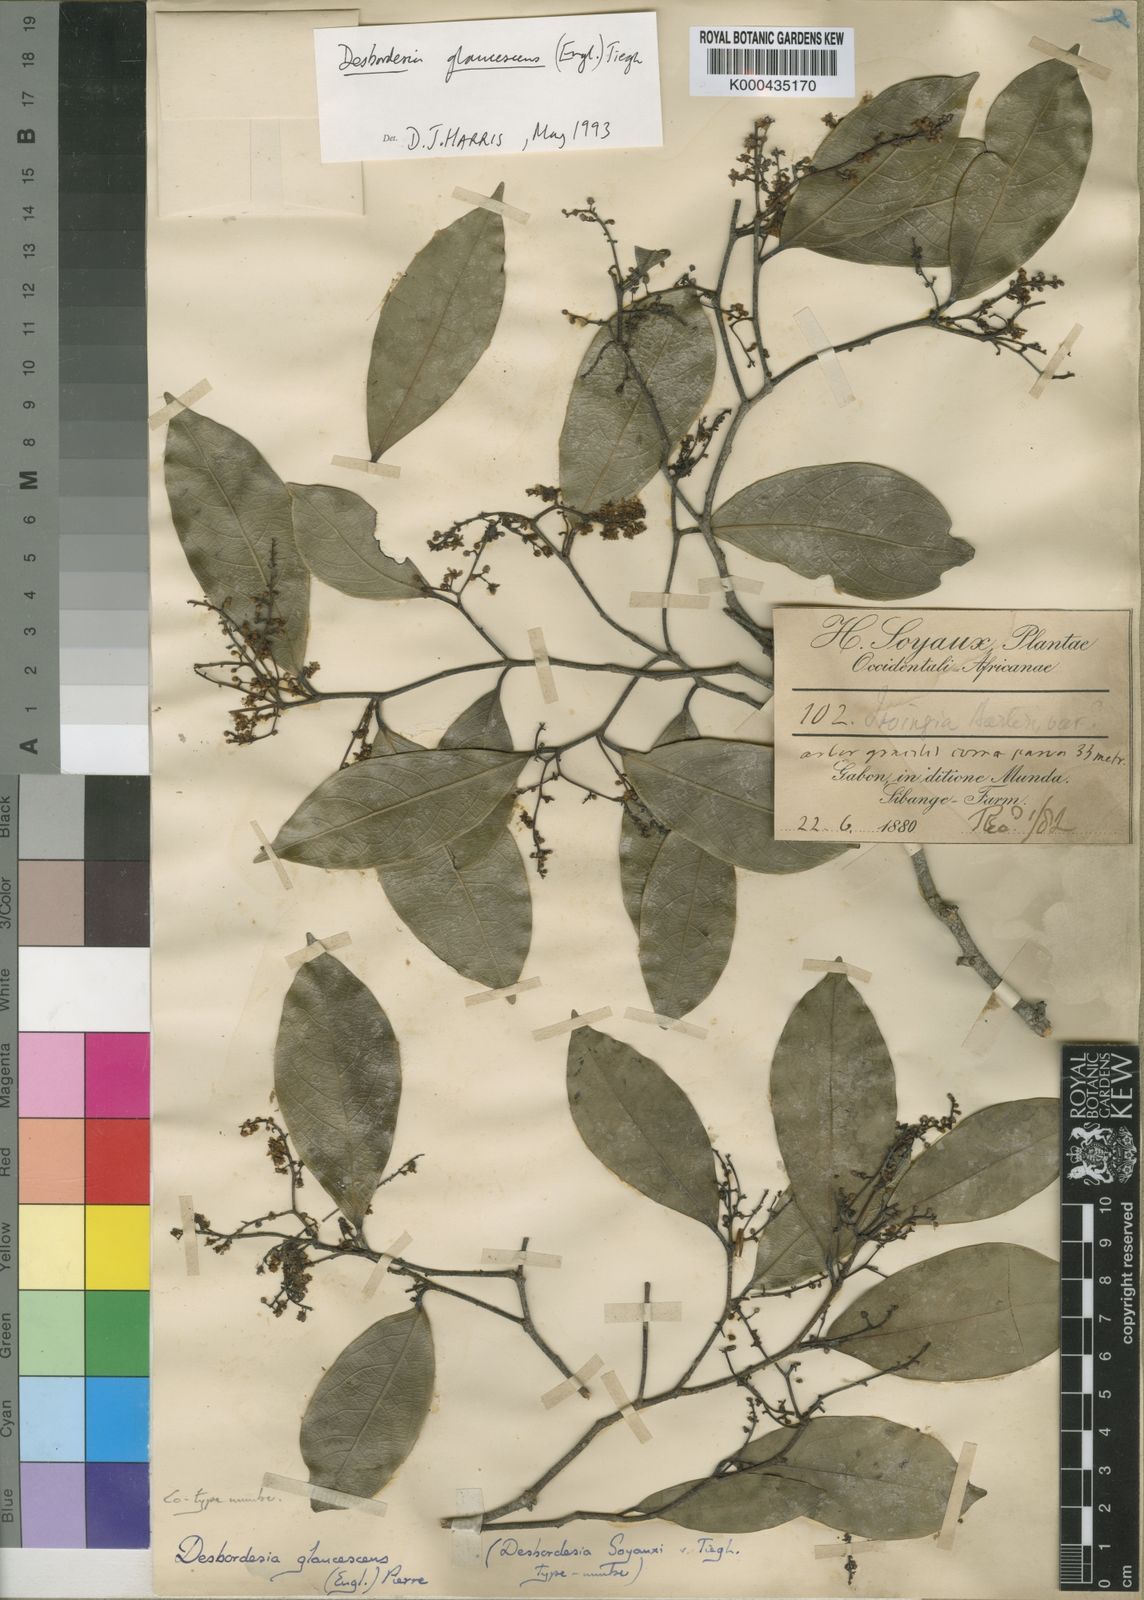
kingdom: Plantae
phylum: Tracheophyta
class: Magnoliopsida
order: Malpighiales
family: Irvingiaceae
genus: Desbordesia
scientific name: Desbordesia glaucescens
